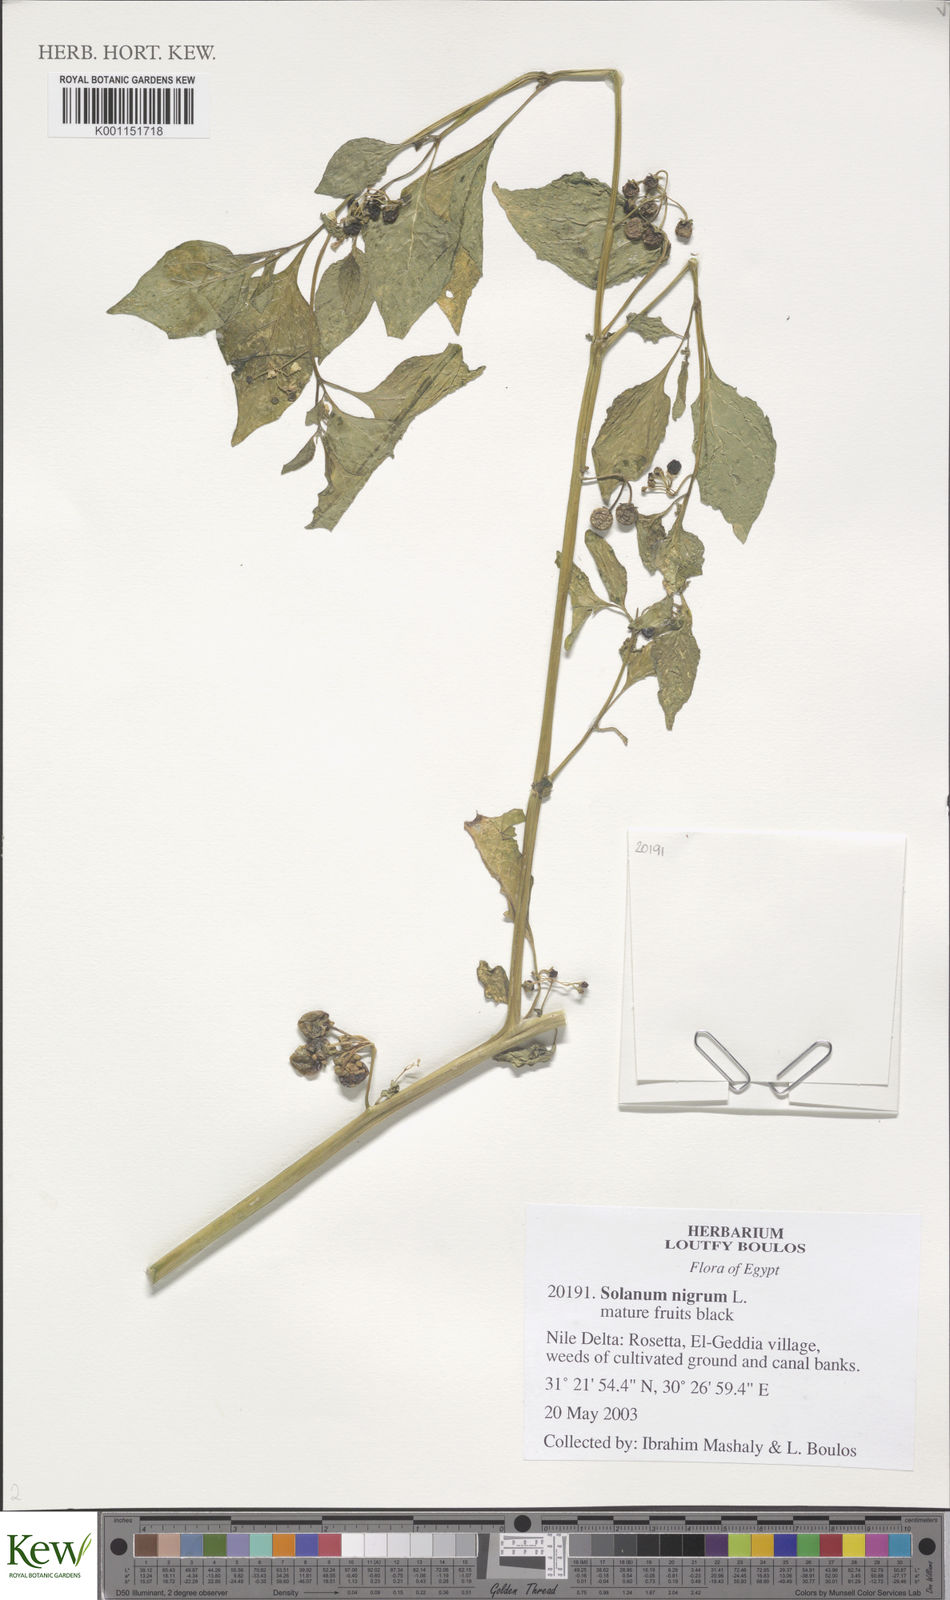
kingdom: Plantae
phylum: Tracheophyta
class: Magnoliopsida
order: Solanales
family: Solanaceae
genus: Solanum
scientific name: Solanum
